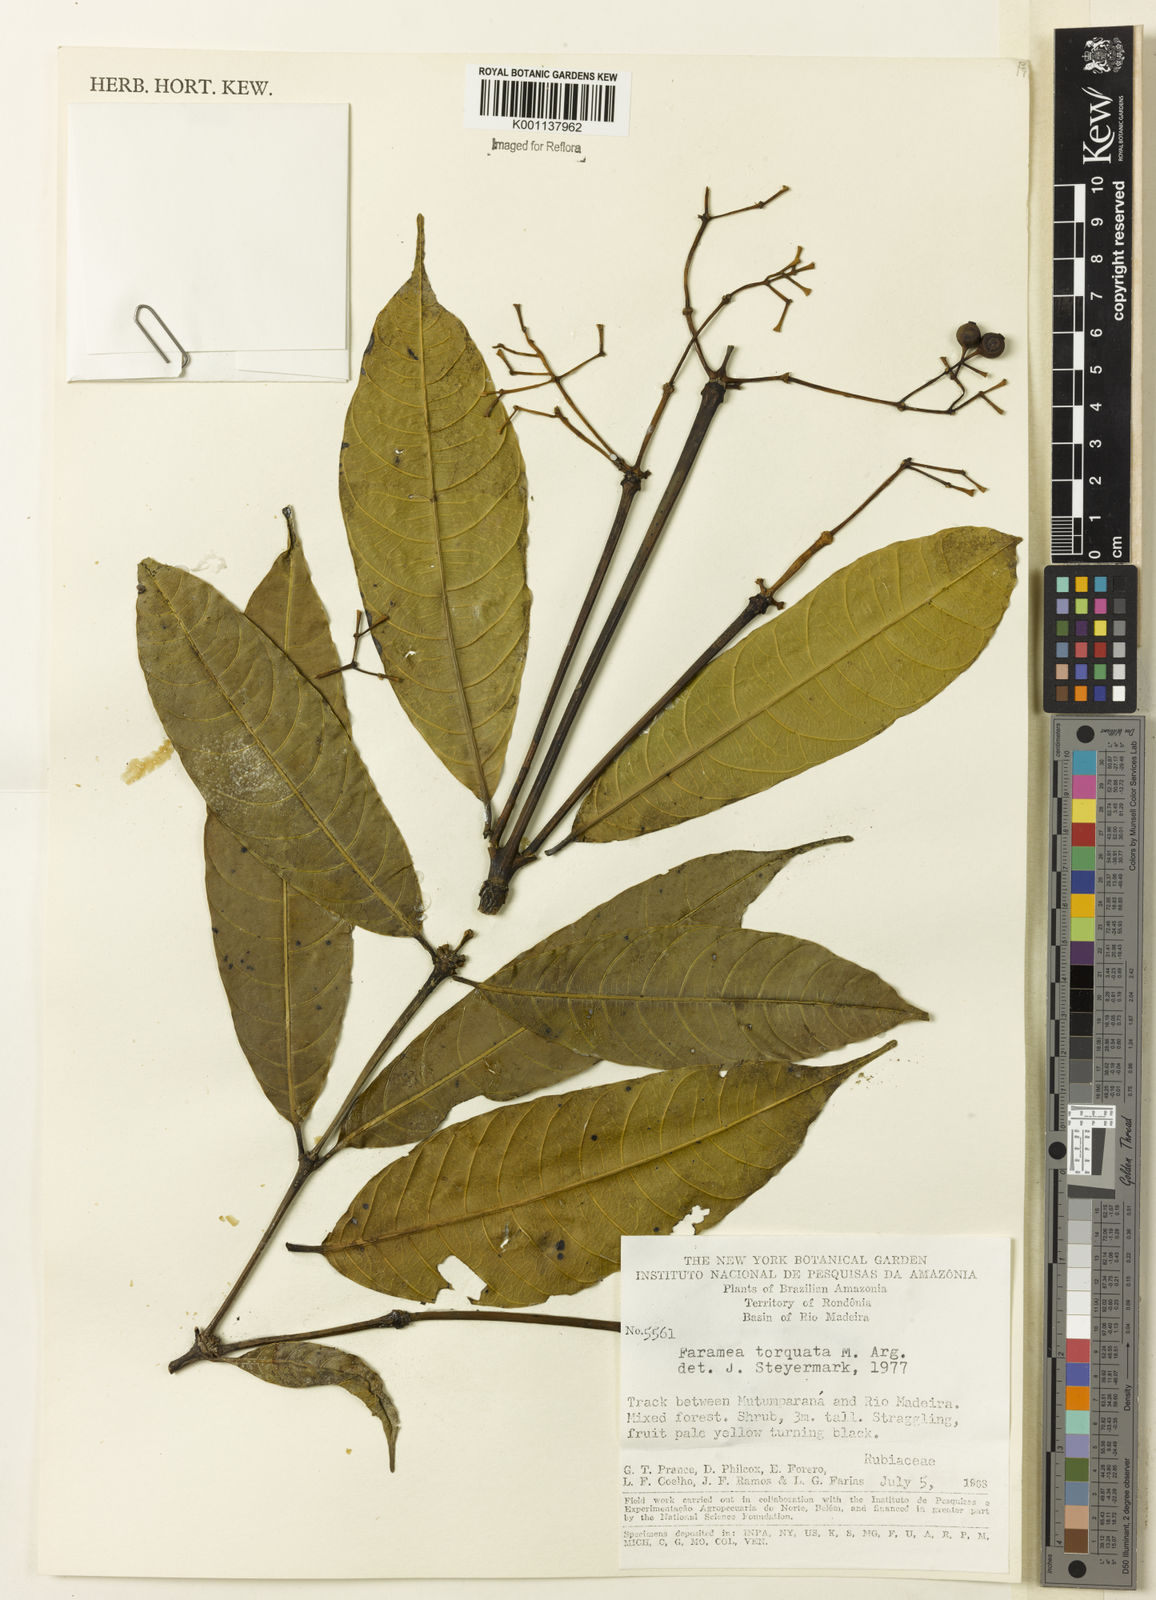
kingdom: Plantae
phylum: Tracheophyta
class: Magnoliopsida
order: Gentianales
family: Rubiaceae
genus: Faramea
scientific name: Faramea
